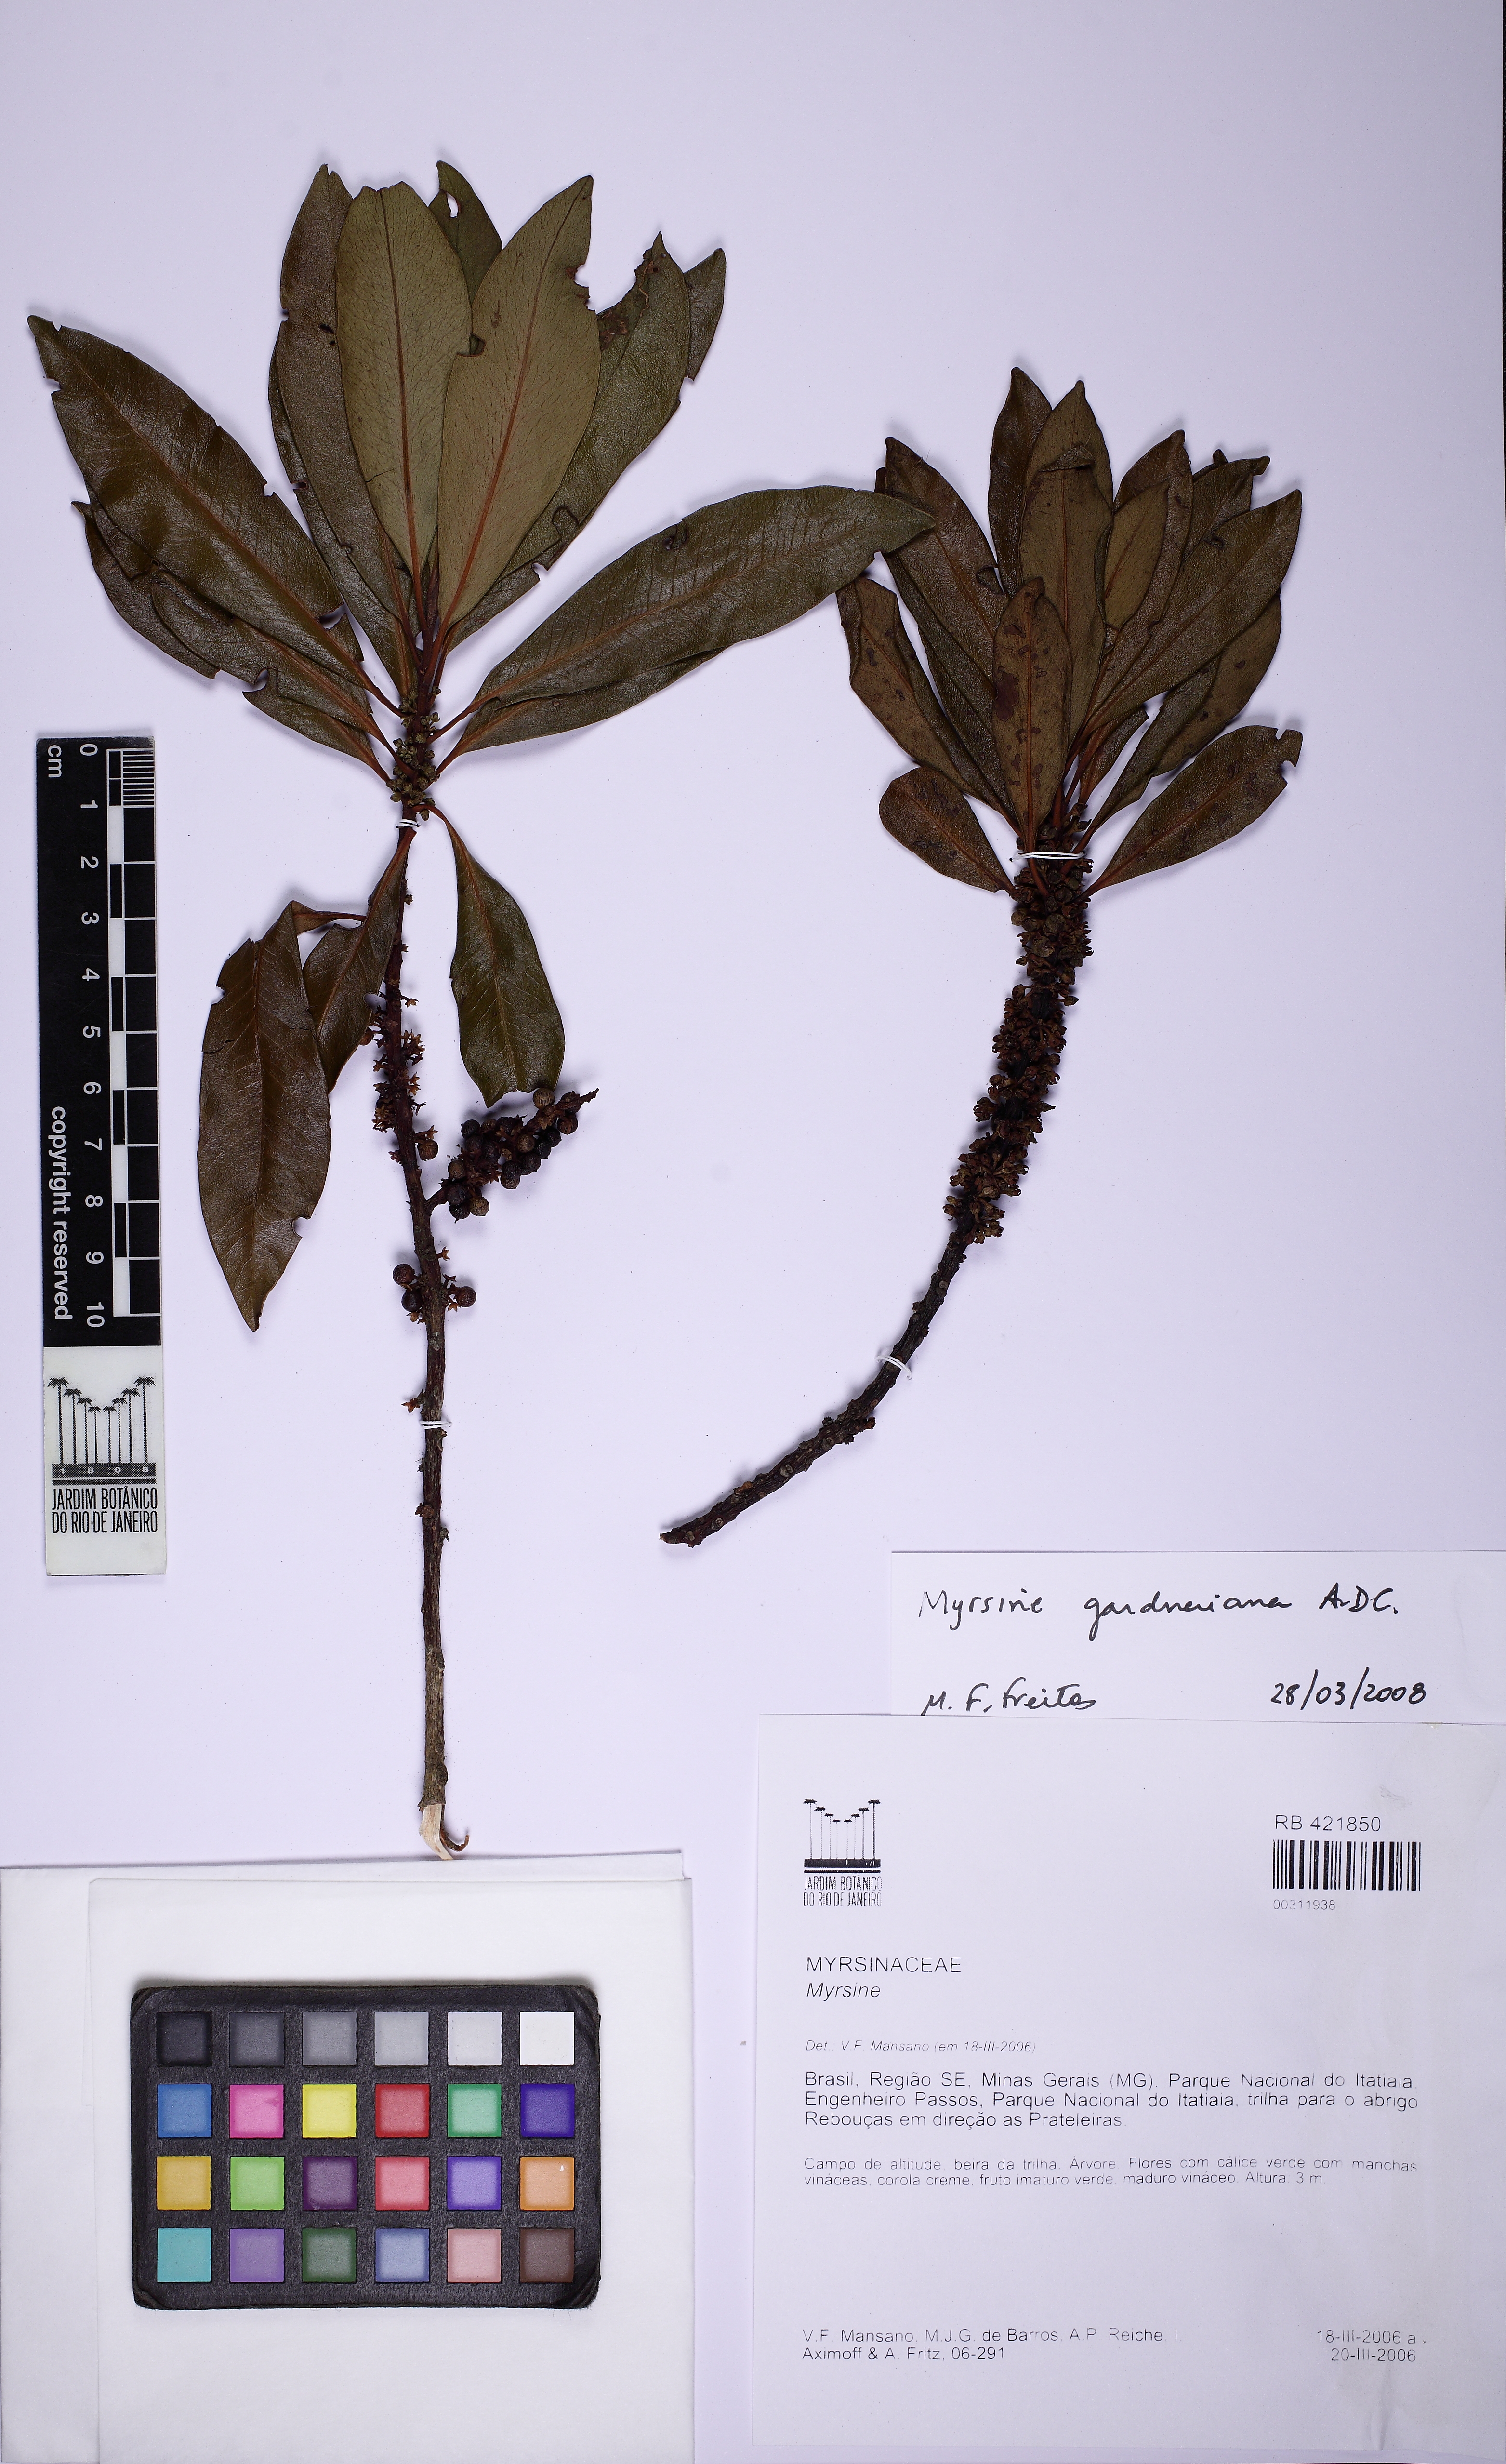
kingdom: Plantae
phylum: Tracheophyta
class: Magnoliopsida
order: Ericales
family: Primulaceae
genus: Myrsine
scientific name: Myrsine gardneriana
